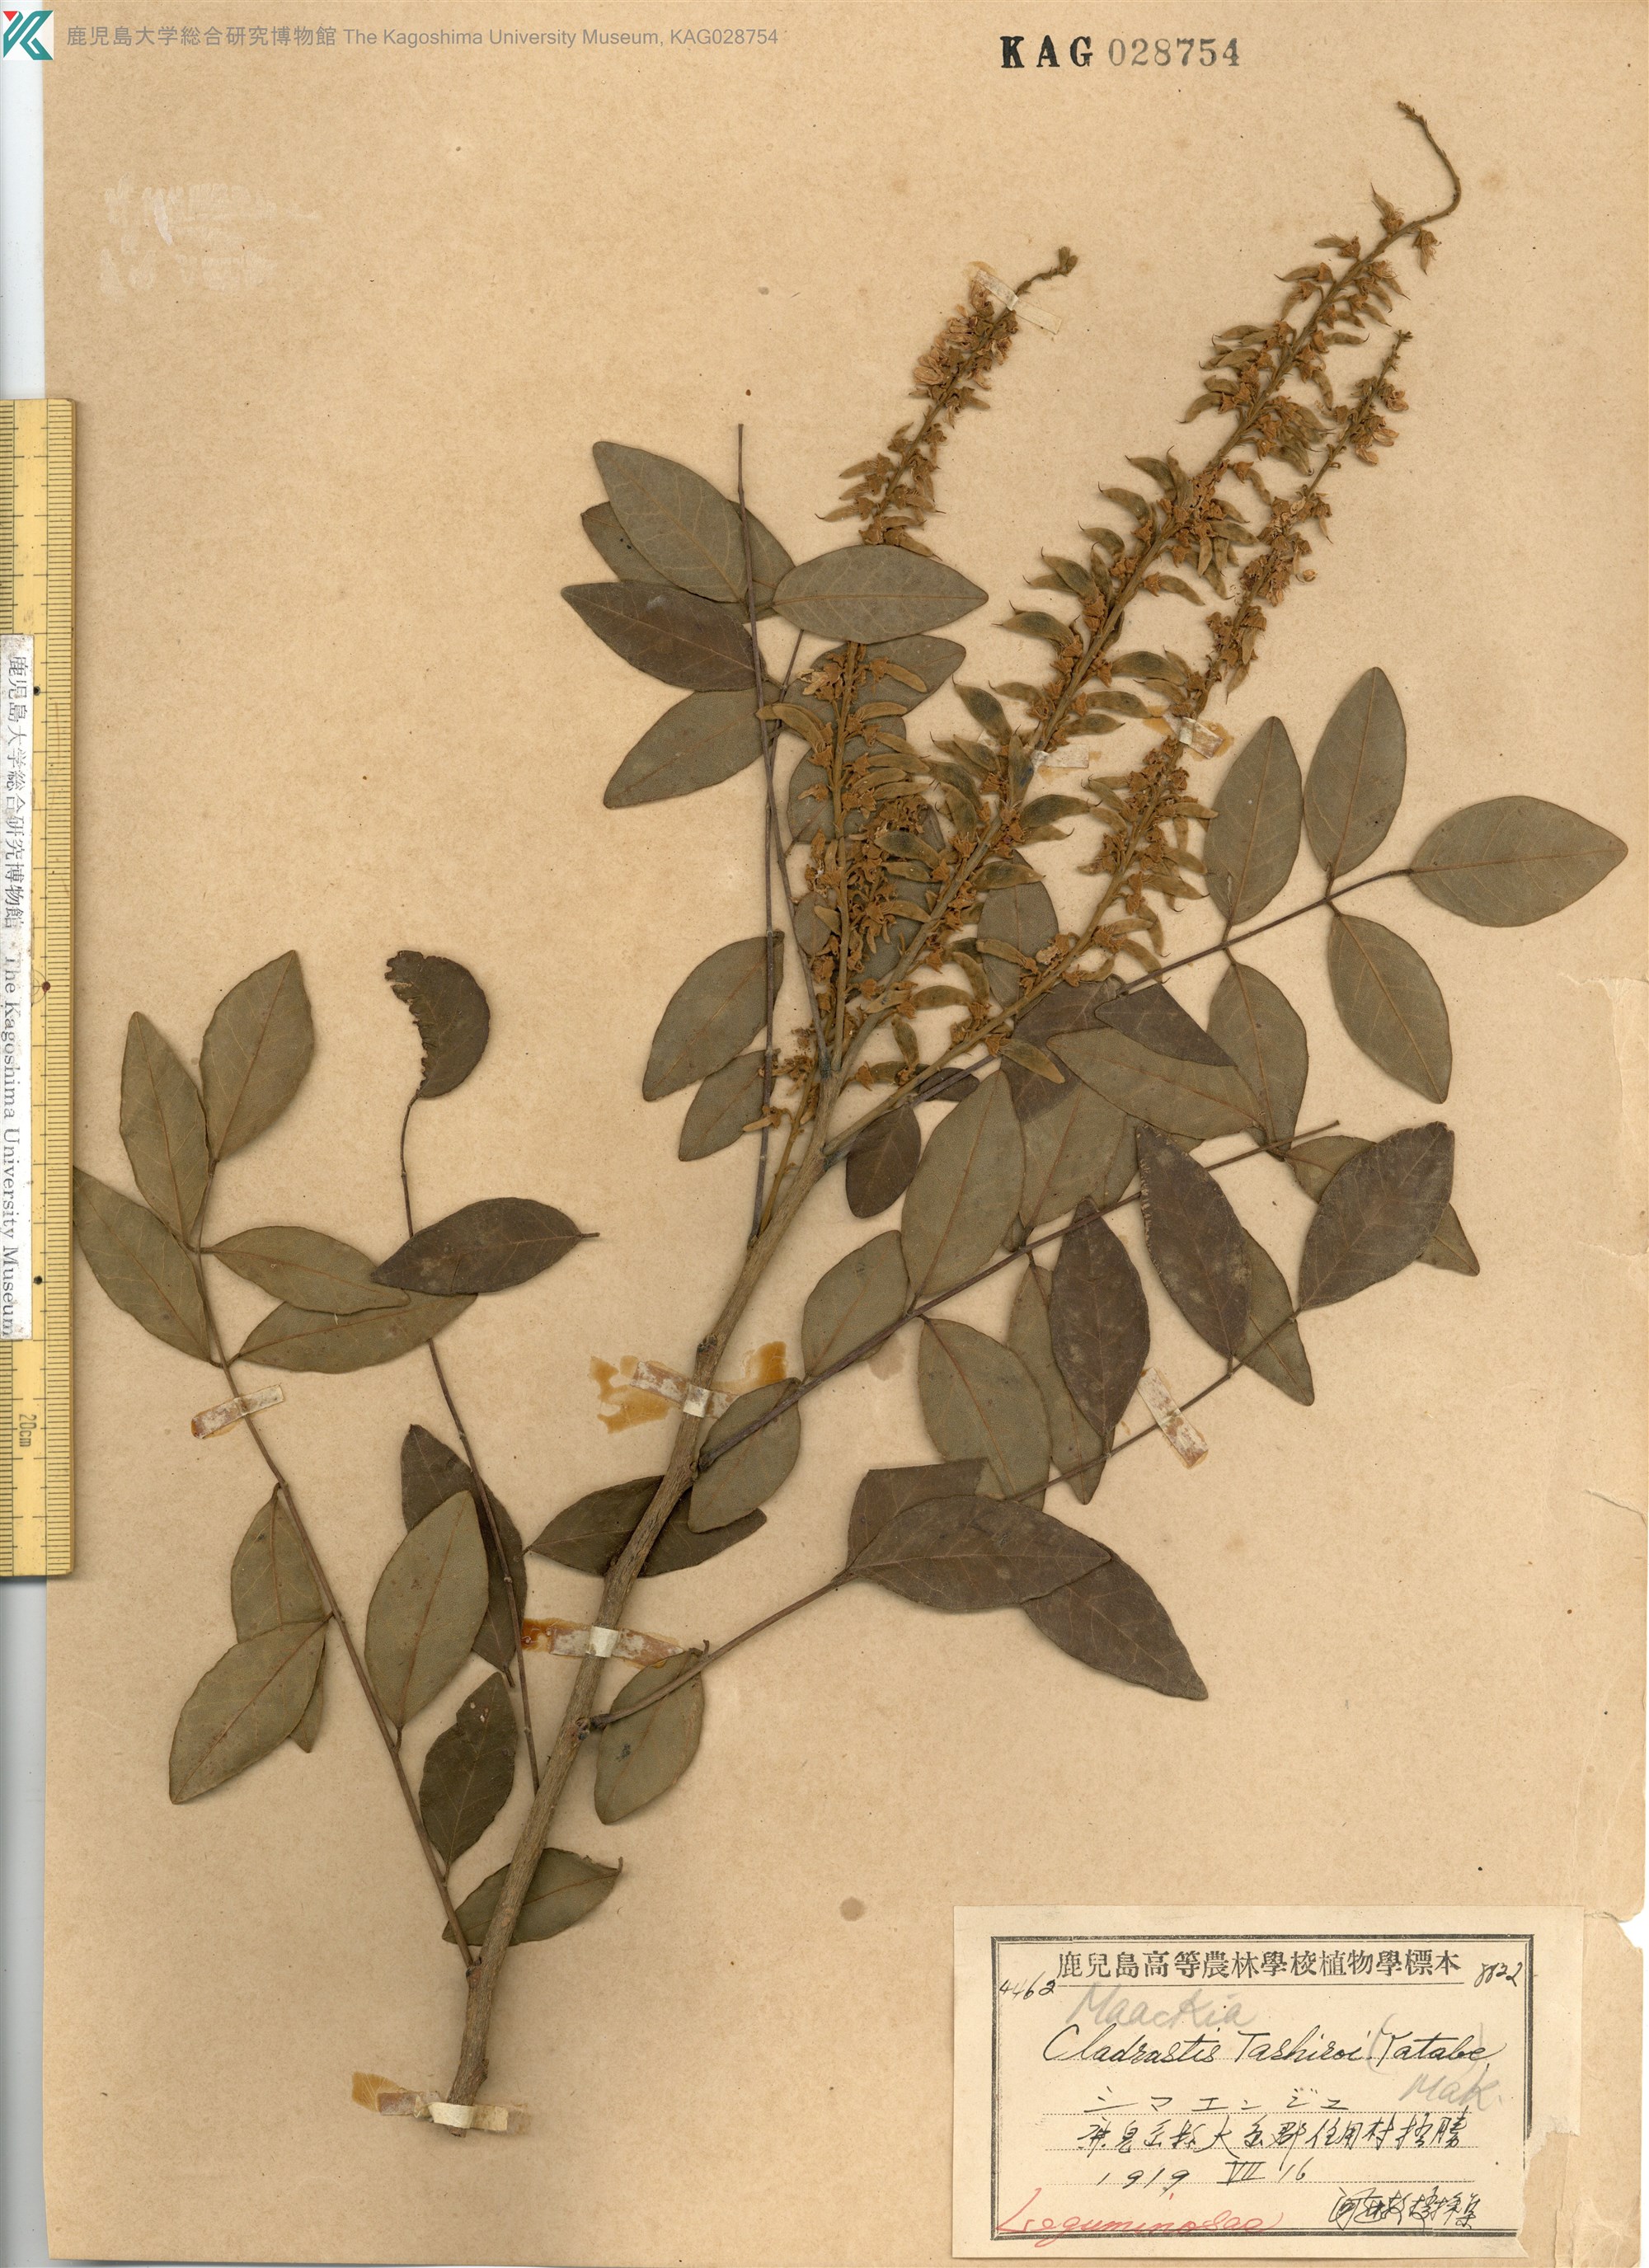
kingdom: Plantae
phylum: Tracheophyta
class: Magnoliopsida
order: Fabales
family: Fabaceae
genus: Maackia
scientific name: Maackia tashiroi
